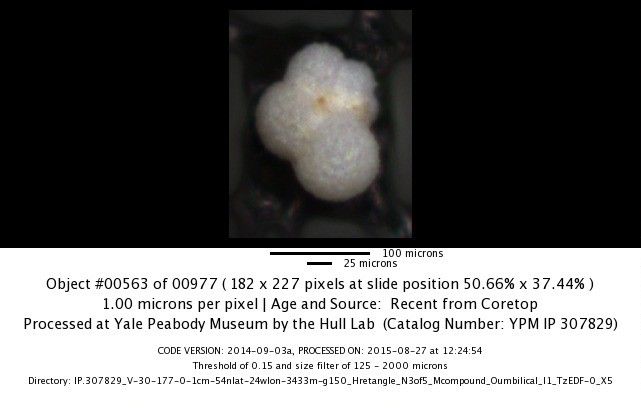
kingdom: Chromista
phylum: Foraminifera
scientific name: Foraminifera
